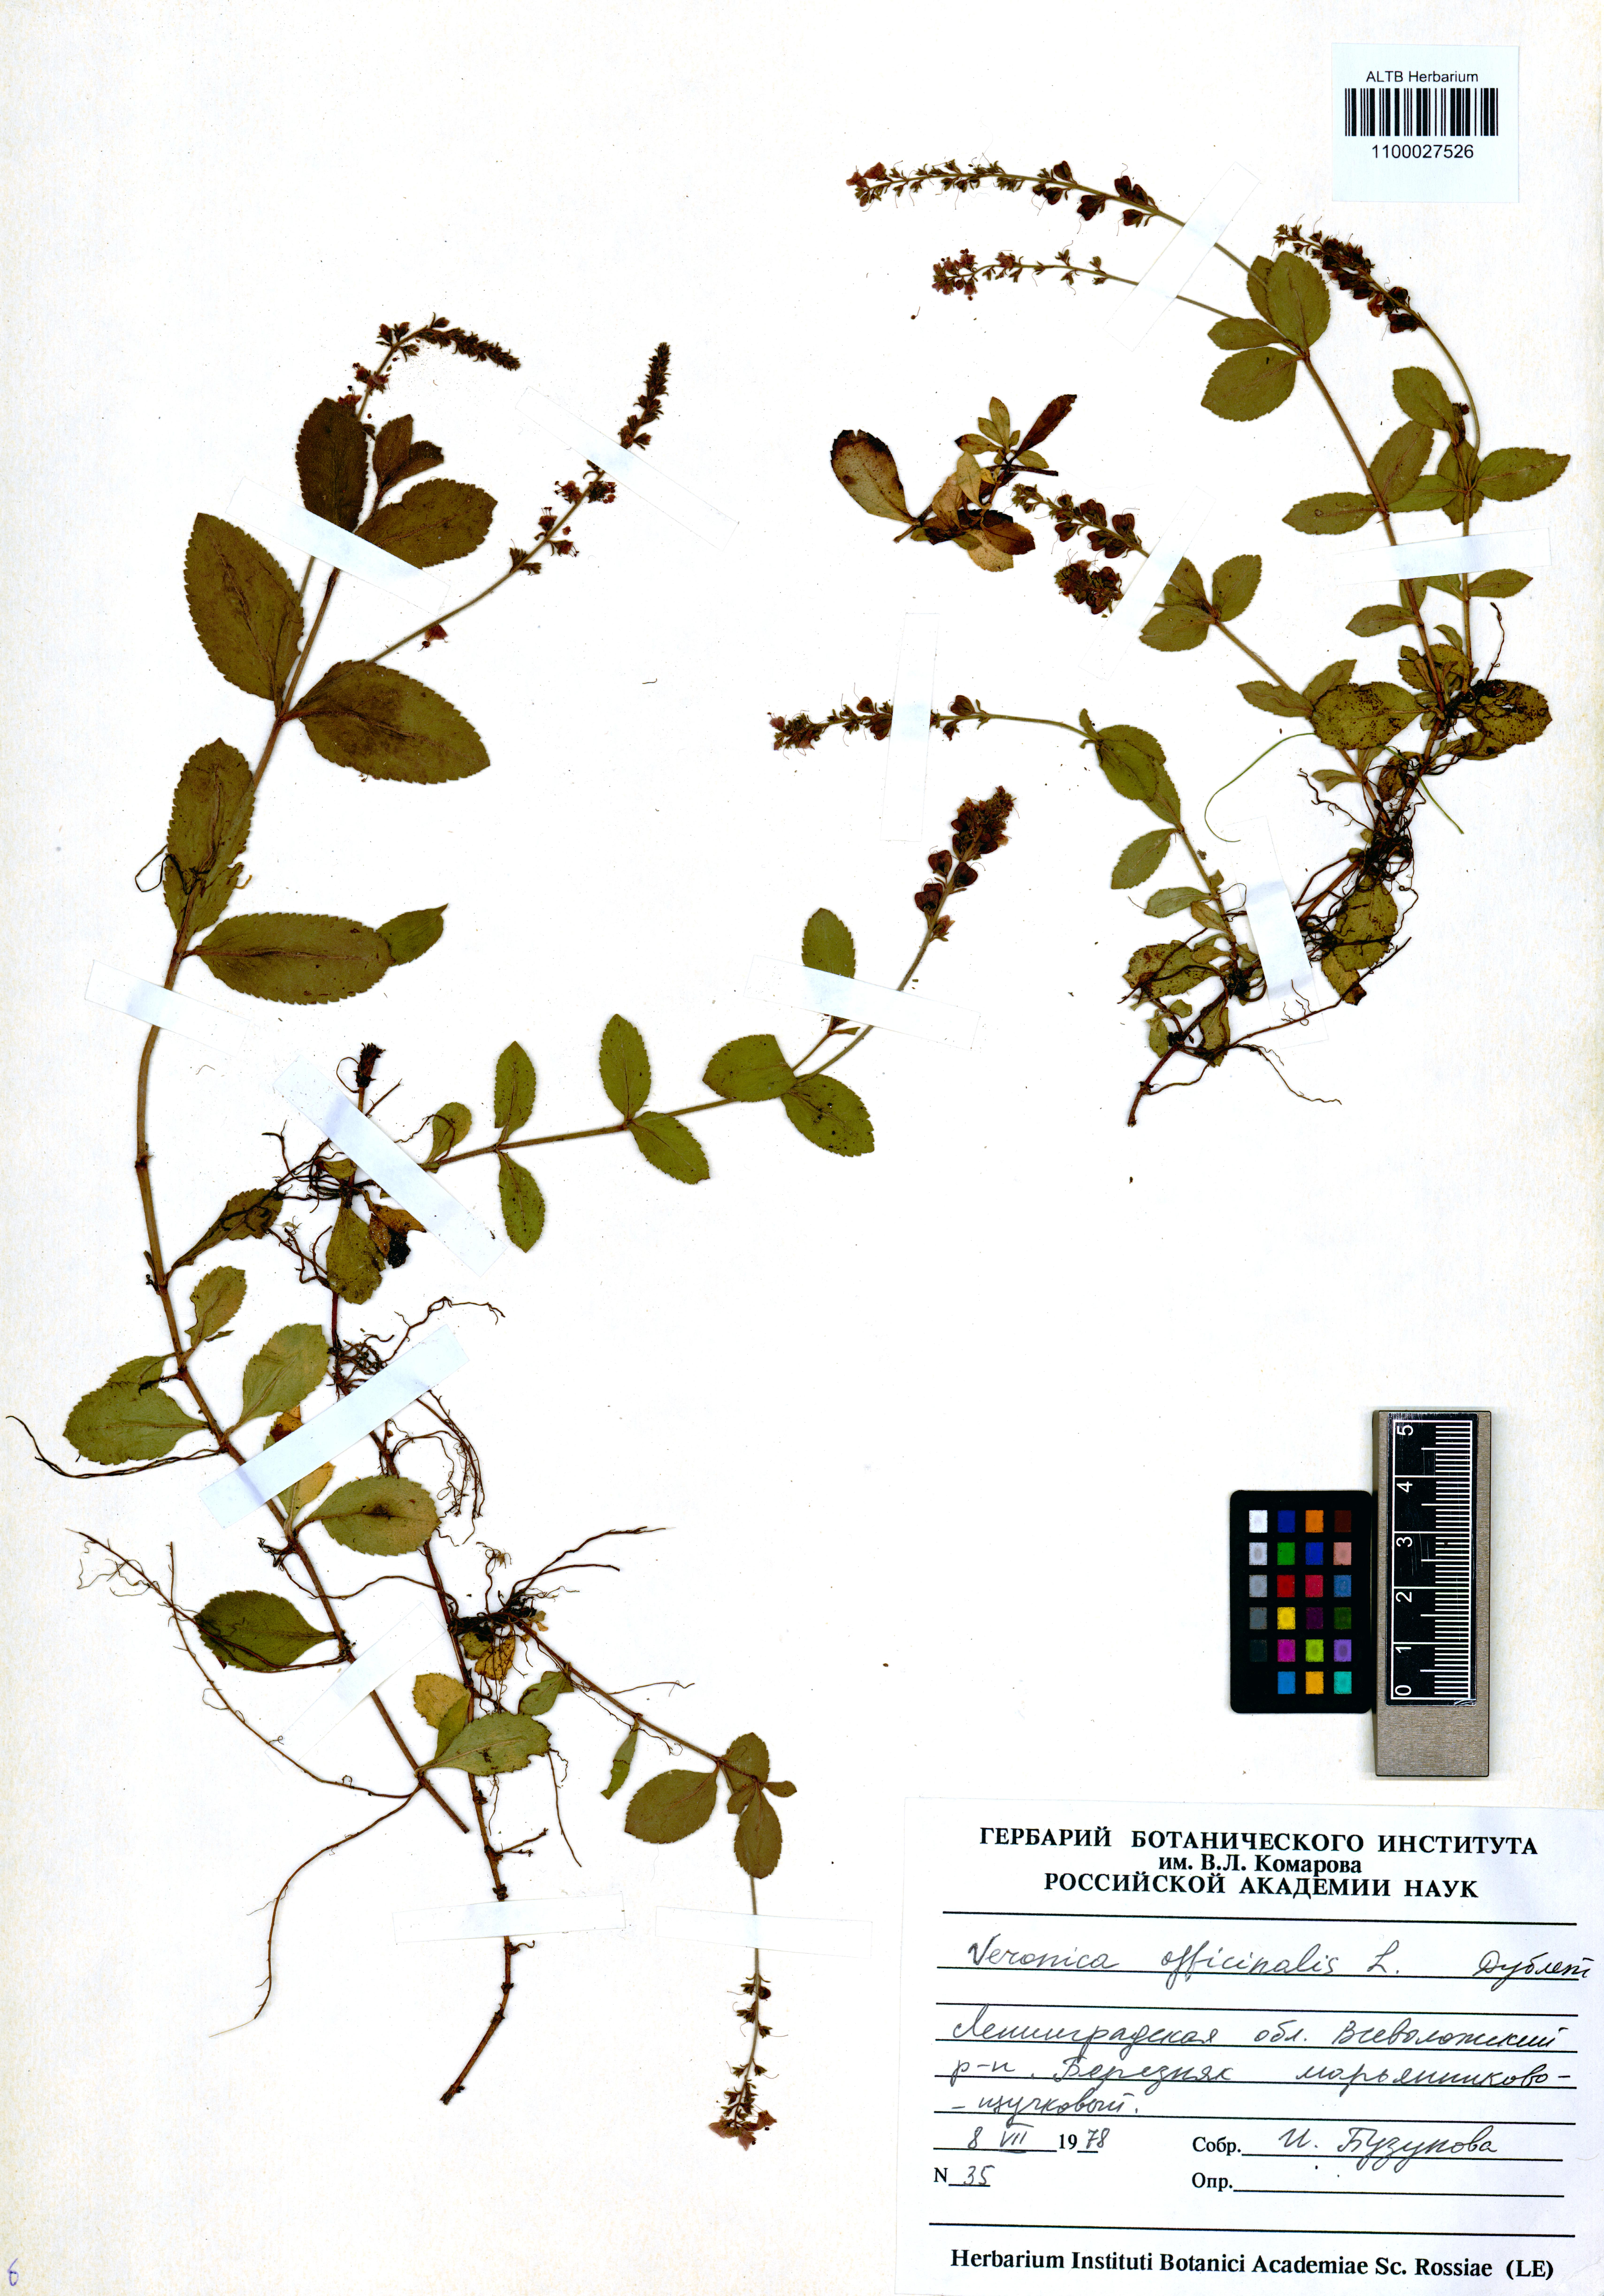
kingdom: Plantae
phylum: Tracheophyta
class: Magnoliopsida
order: Lamiales
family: Plantaginaceae
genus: Veronica
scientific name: Veronica officinalis
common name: Common speedwell
